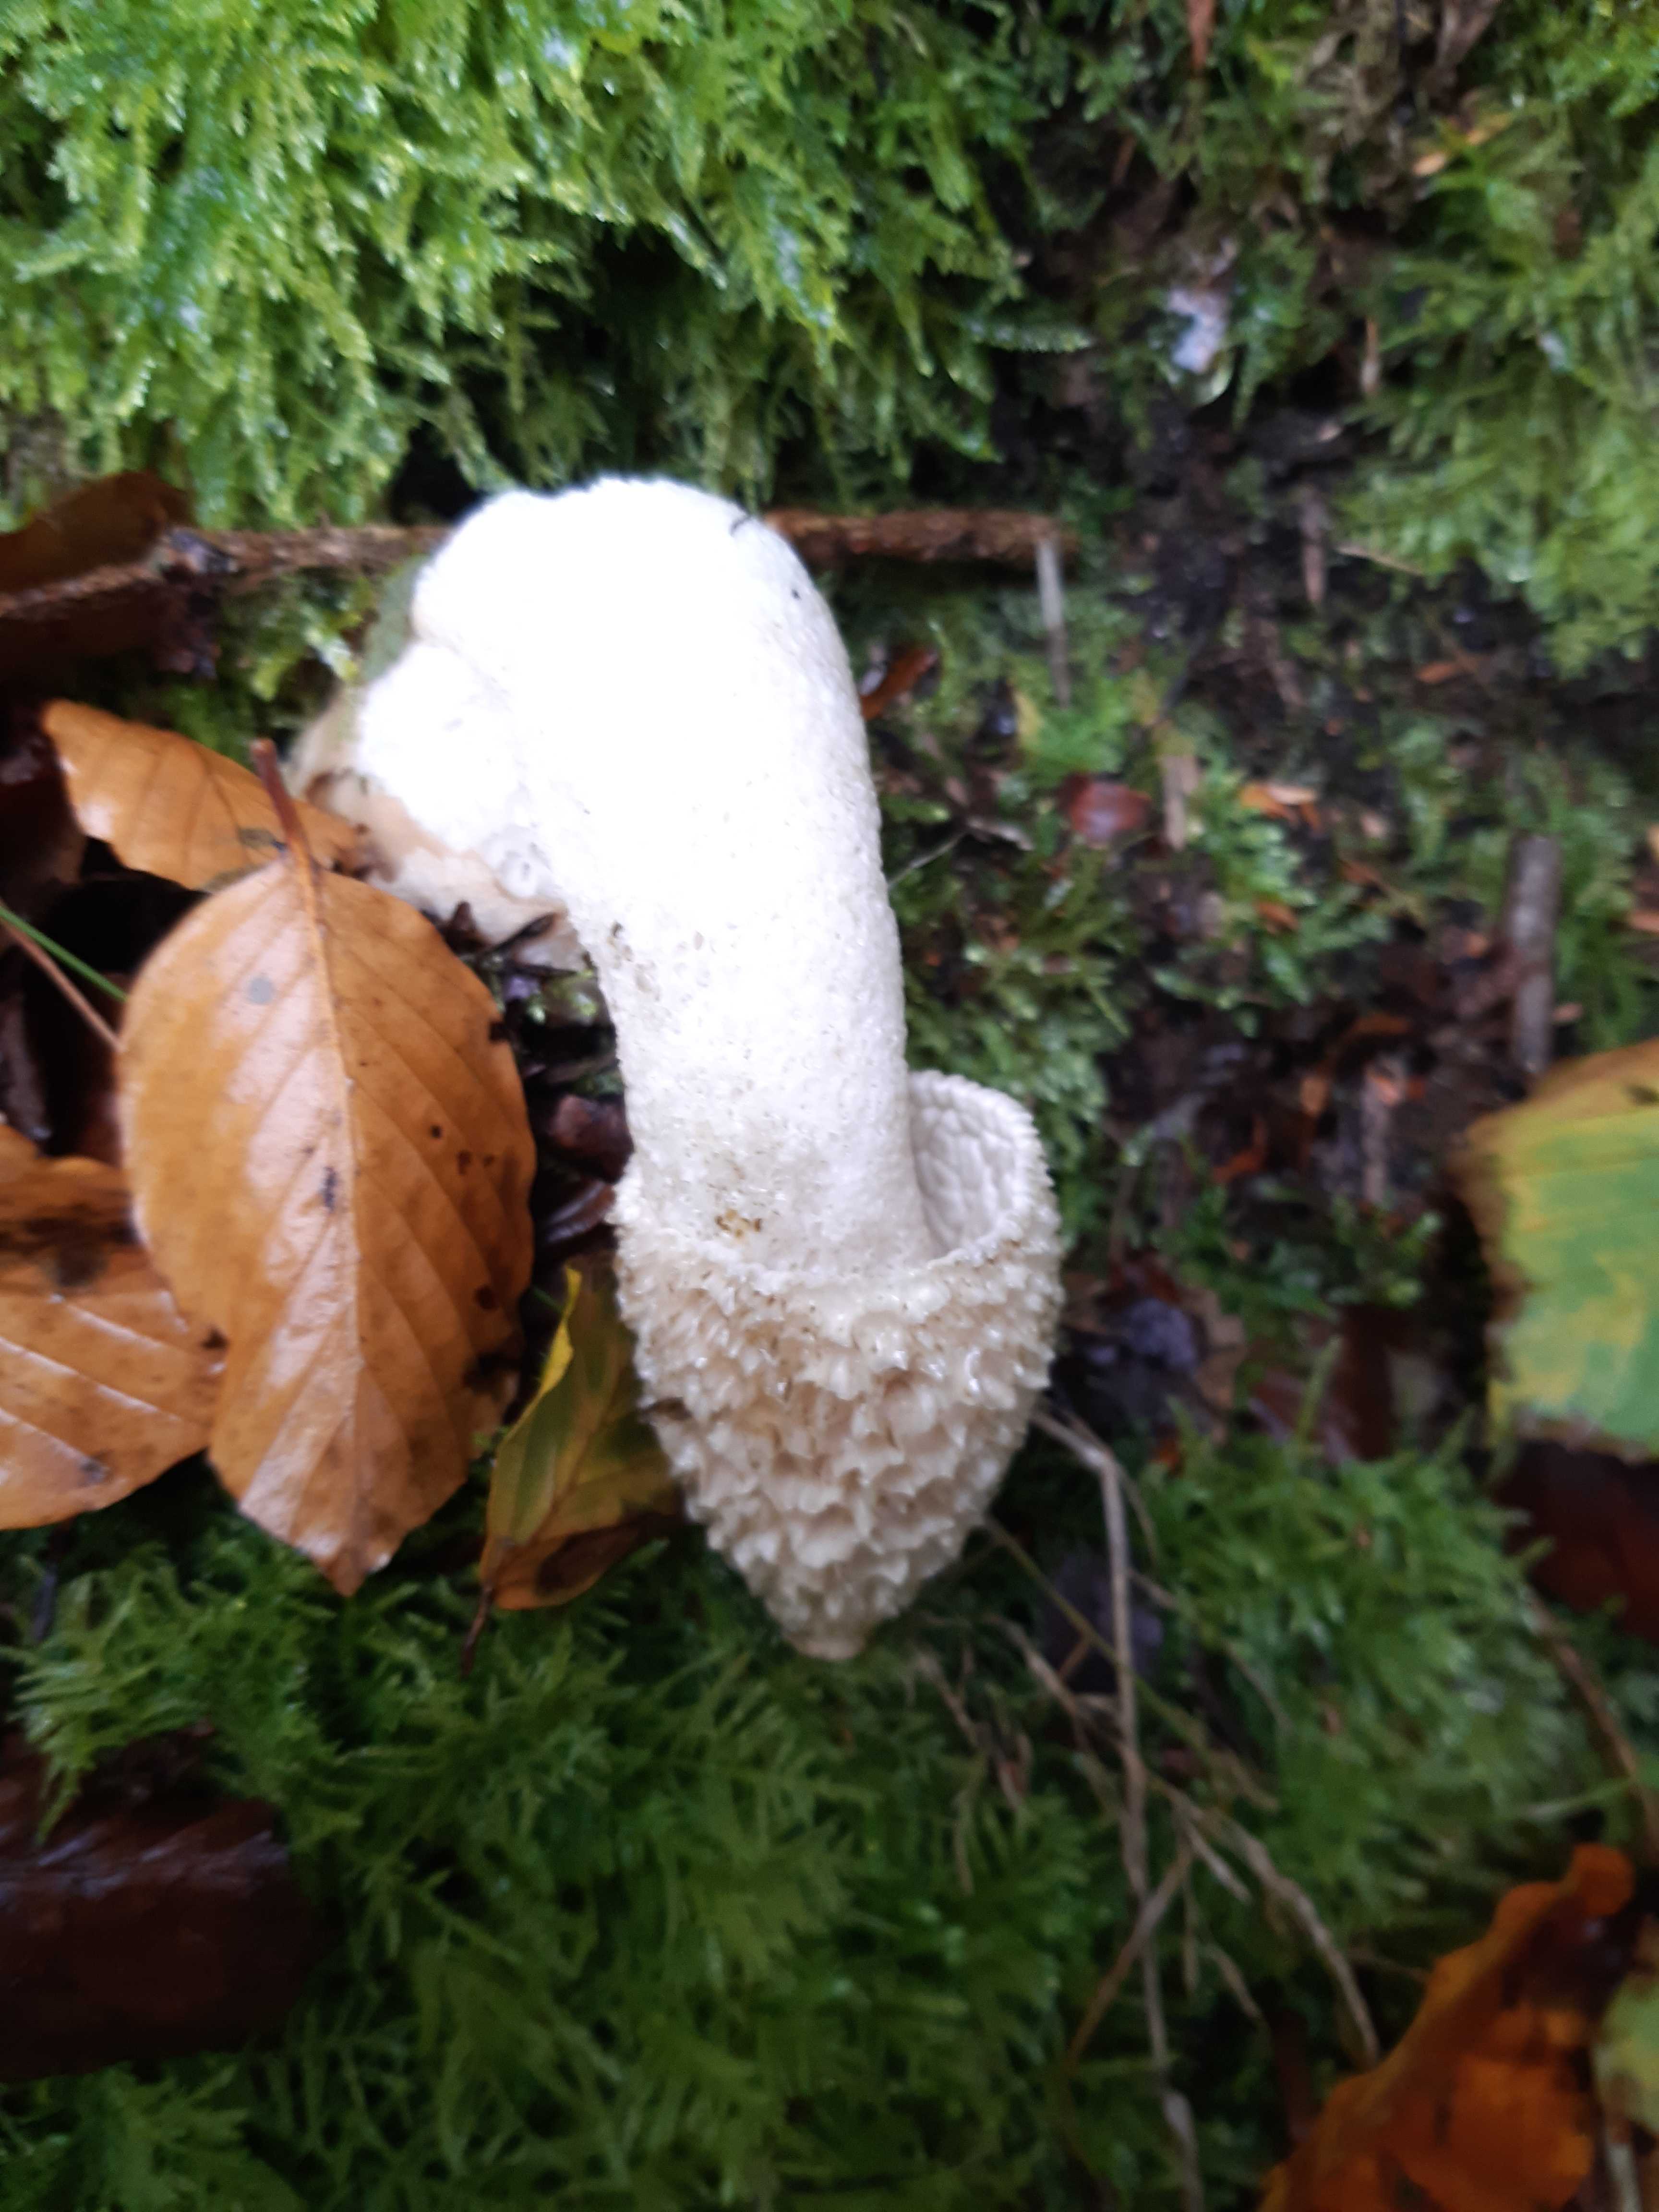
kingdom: Fungi
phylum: Basidiomycota
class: Agaricomycetes
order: Phallales
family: Phallaceae
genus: Phallus
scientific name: Phallus impudicus
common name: almindelig stinksvamp
